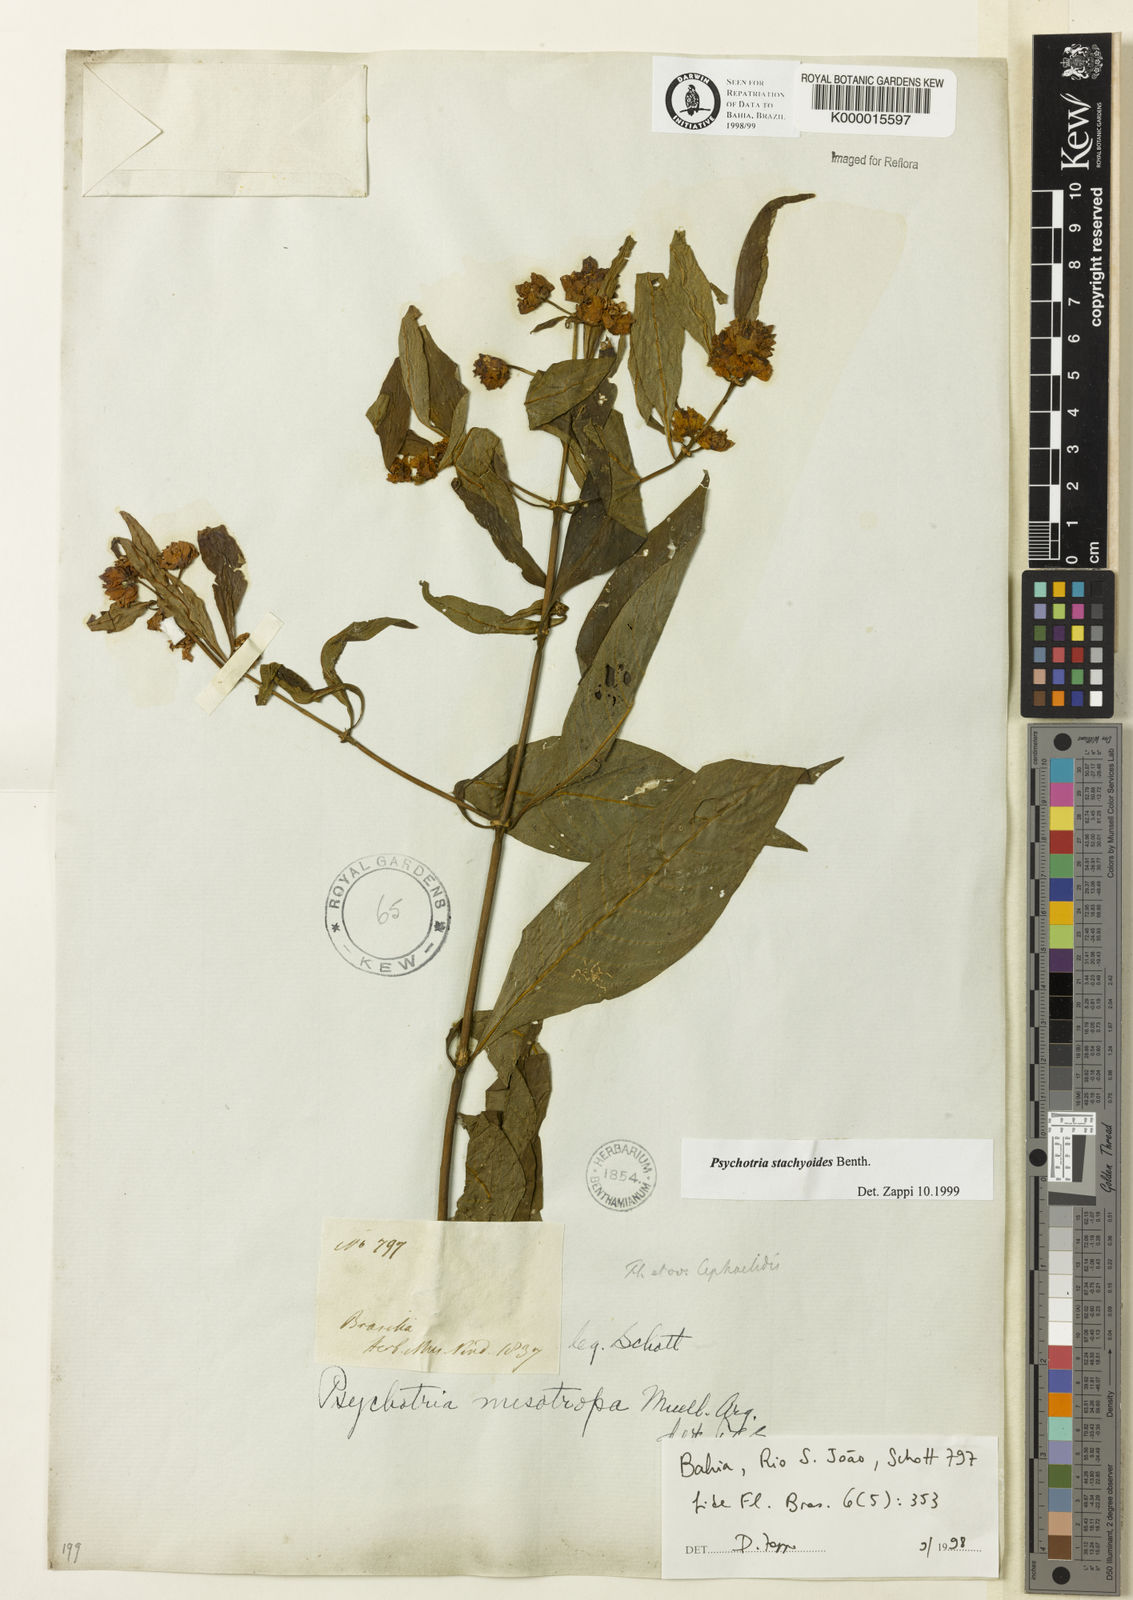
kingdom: Plantae
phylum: Tracheophyta
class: Magnoliopsida
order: Gentianales
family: Rubiaceae
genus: Psychotria
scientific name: Psychotria stachyoides
